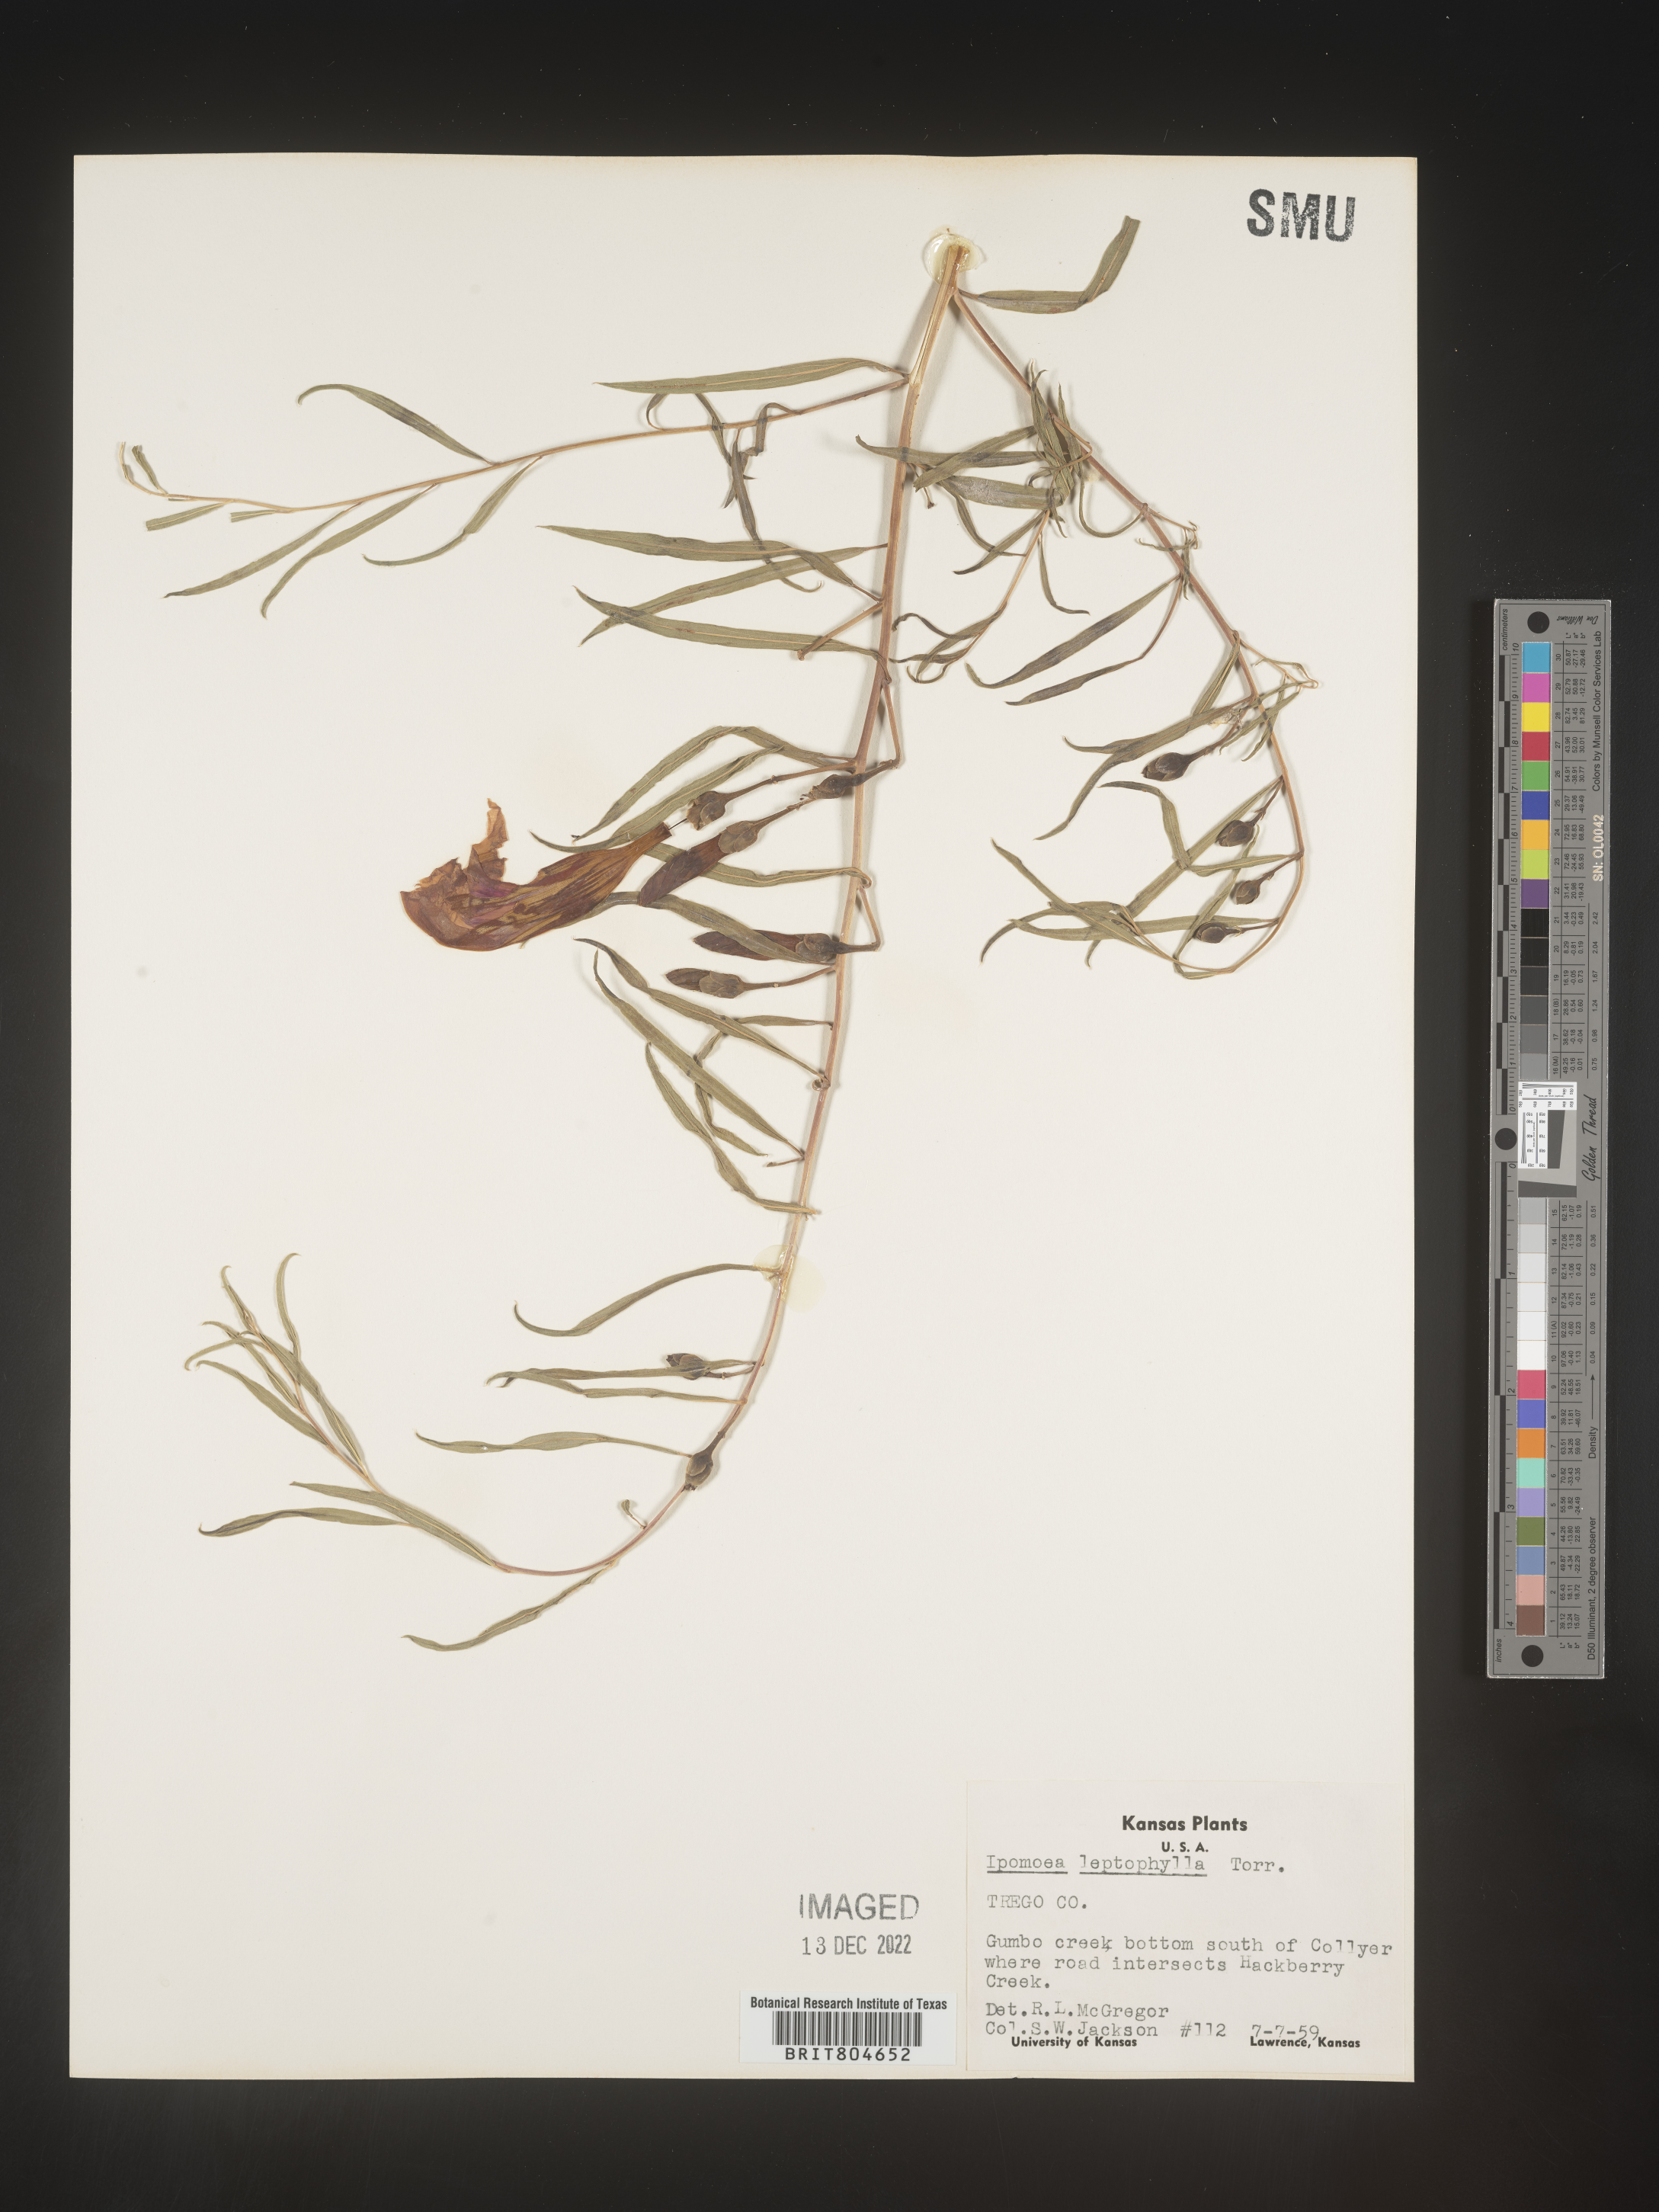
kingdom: Plantae
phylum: Tracheophyta
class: Magnoliopsida
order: Solanales
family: Convolvulaceae
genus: Ipomoea
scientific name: Ipomoea leptophylla
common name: Bush moonflower
